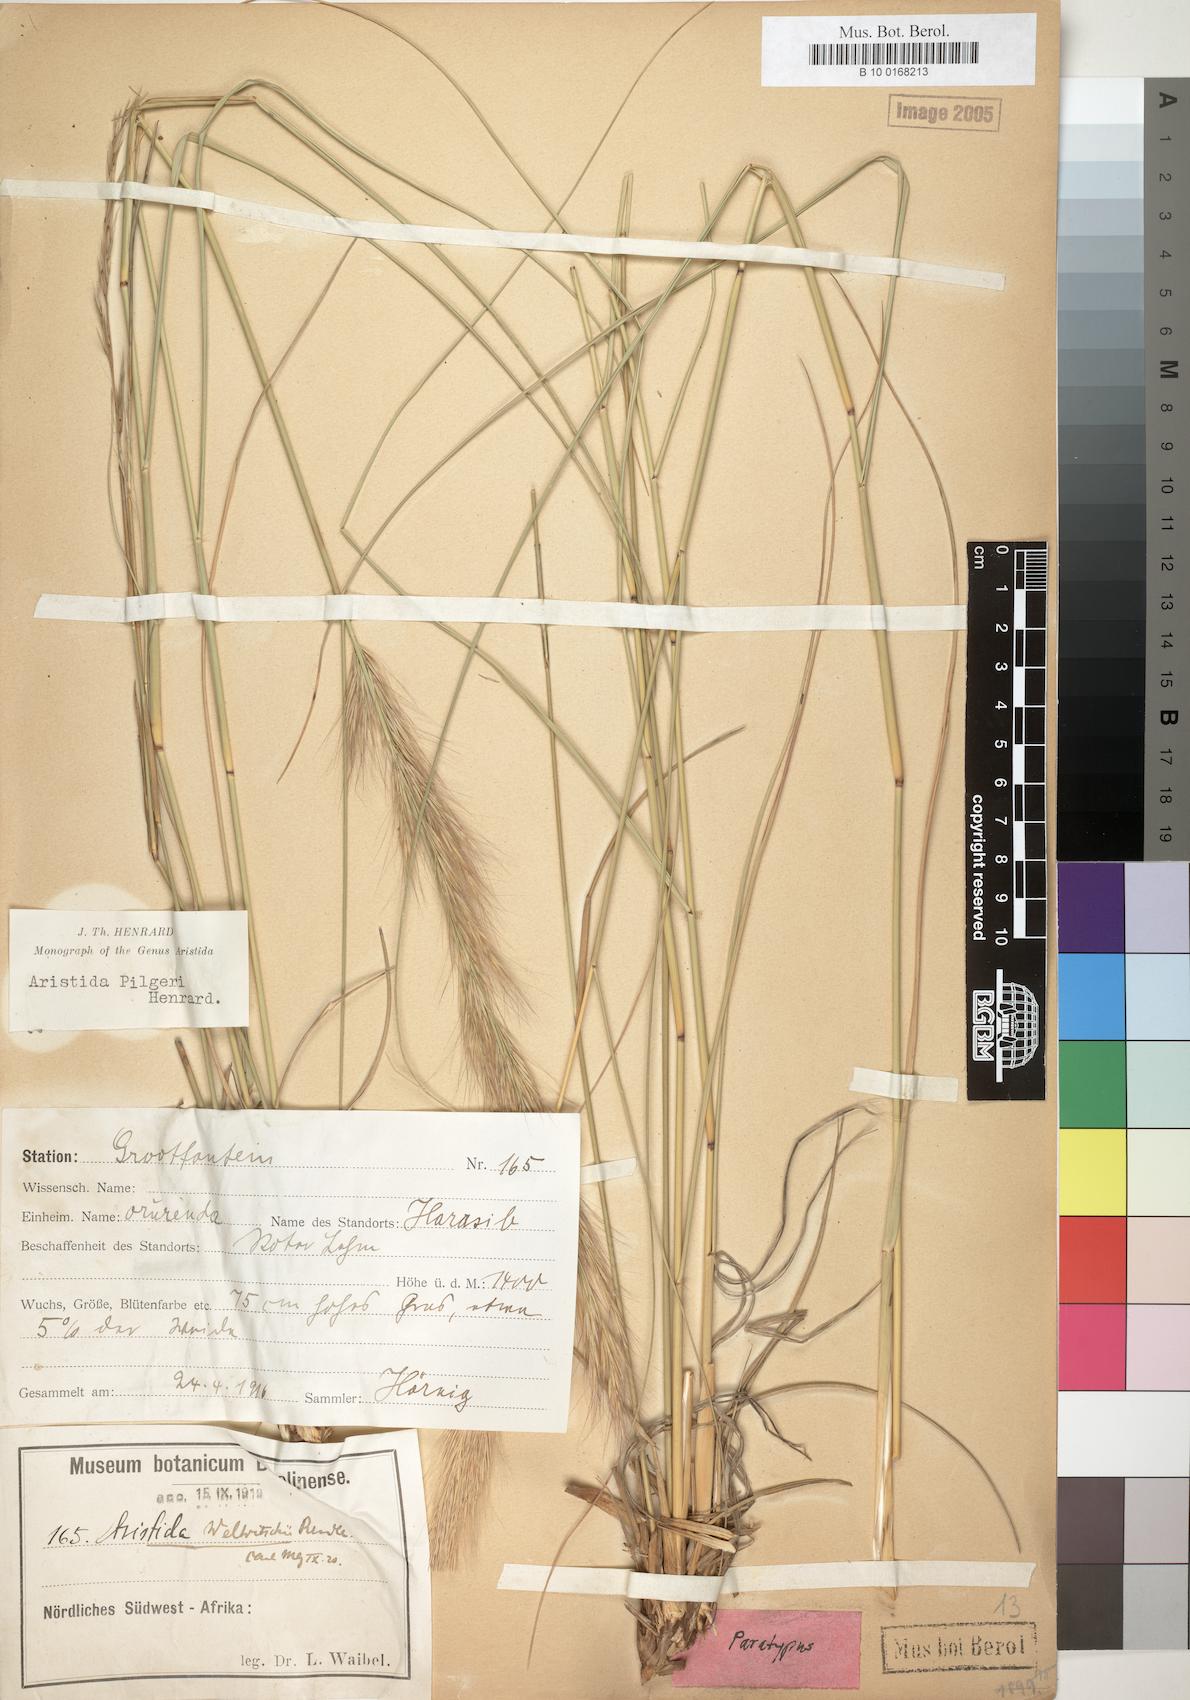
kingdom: Plantae
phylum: Tracheophyta
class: Liliopsida
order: Poales
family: Poaceae
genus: Aristida
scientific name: Aristida pilgeri
